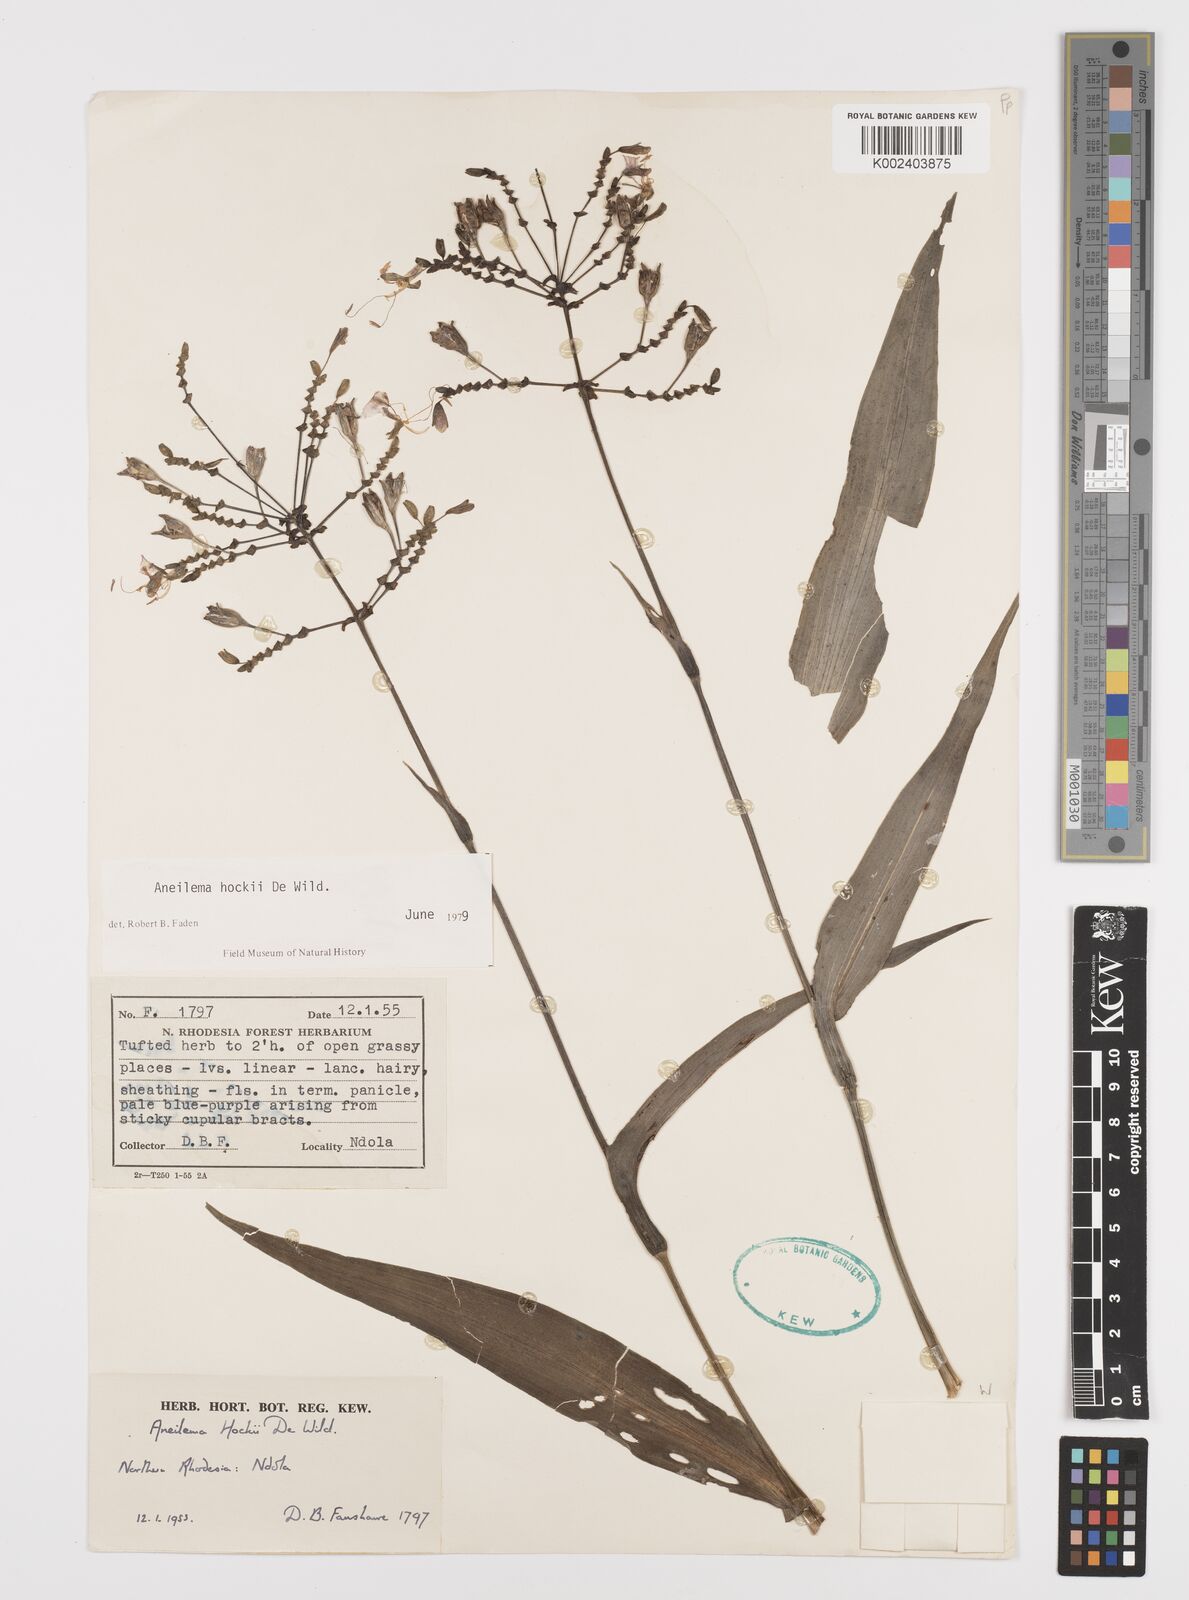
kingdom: Plantae
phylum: Tracheophyta
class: Liliopsida
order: Commelinales
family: Commelinaceae
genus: Aneilema
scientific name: Aneilema hockii
